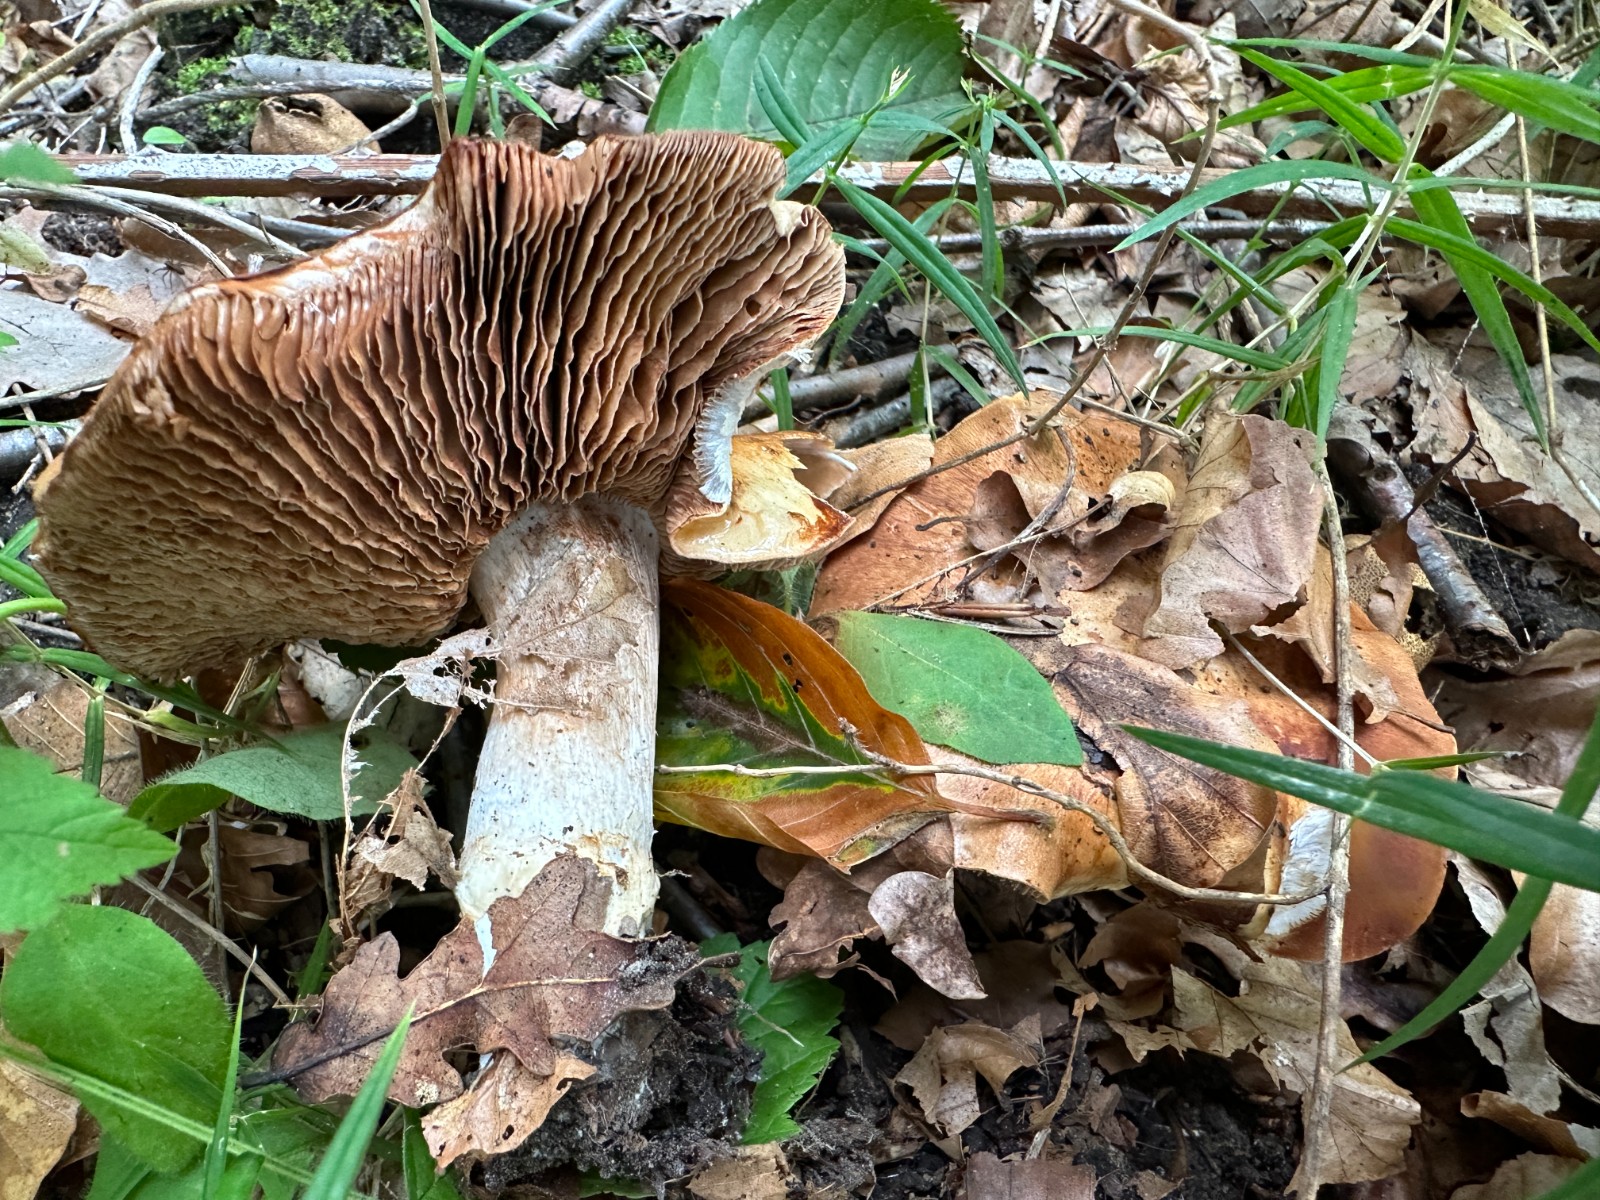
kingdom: Fungi
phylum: Basidiomycota
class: Agaricomycetes
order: Agaricales
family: Hymenogastraceae
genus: Hebeloma
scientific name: Hebeloma sinapizans
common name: ræddike-tåreblad
